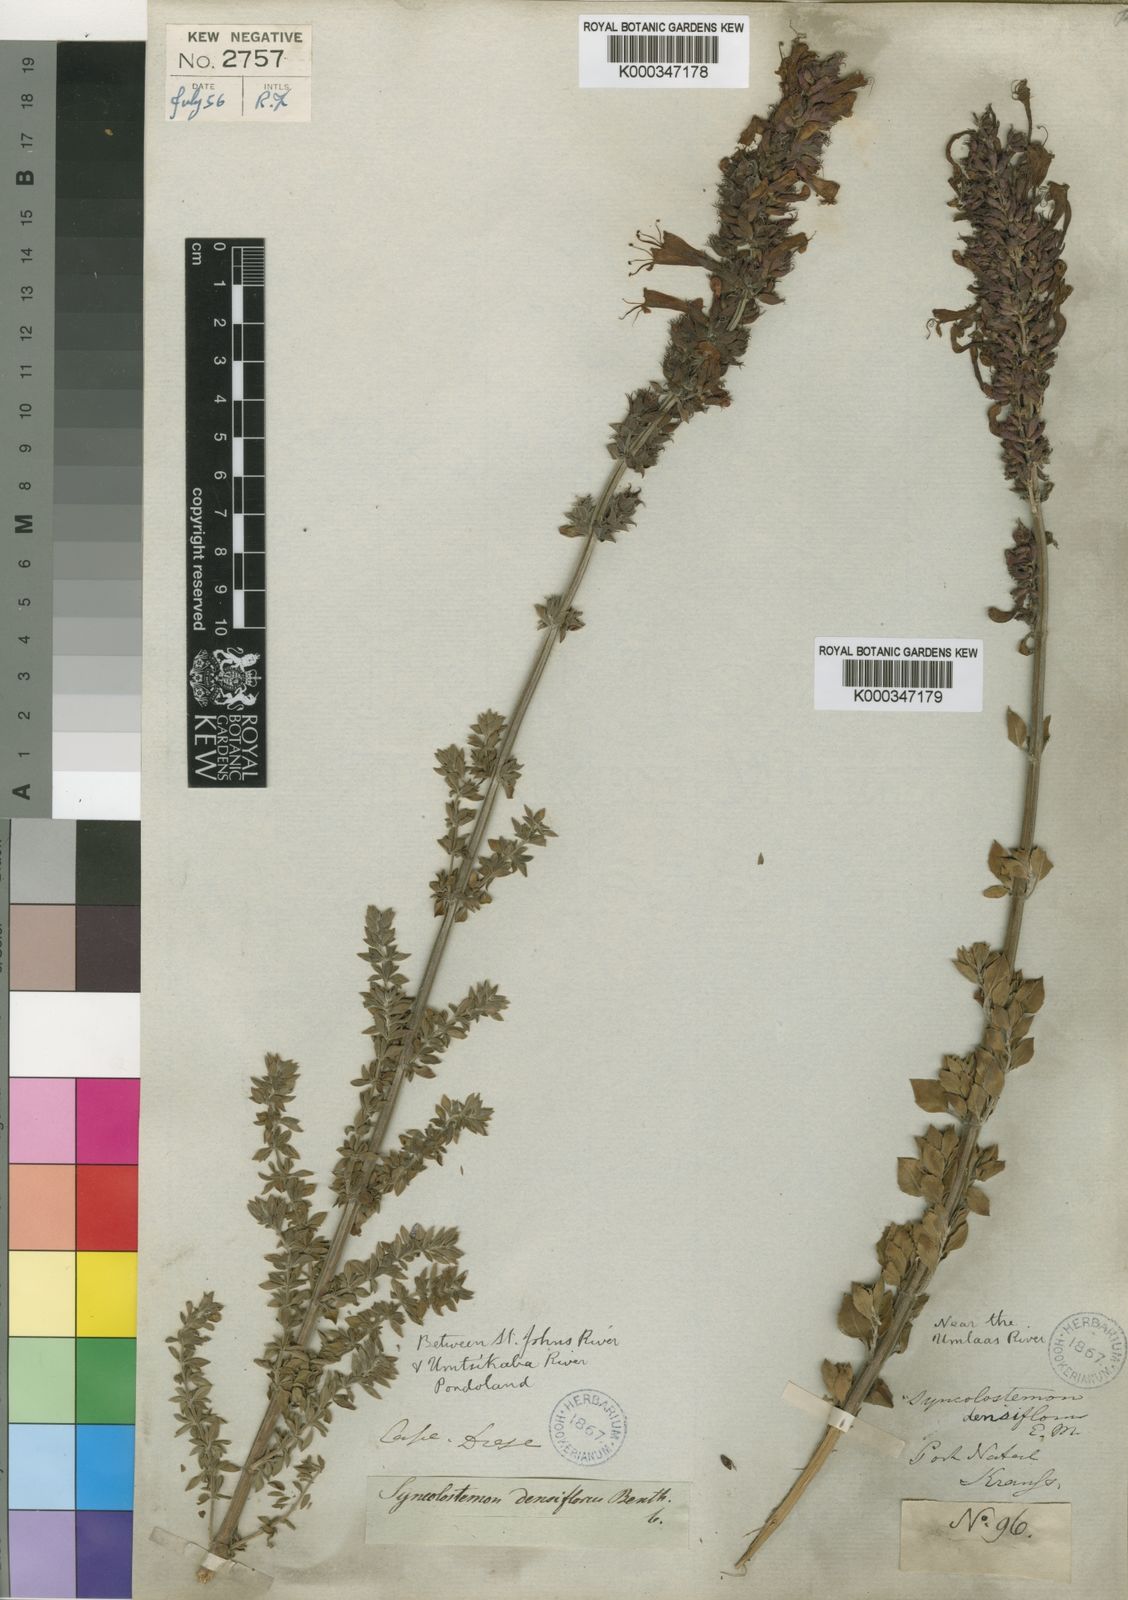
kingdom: Plantae
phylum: Tracheophyta
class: Magnoliopsida
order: Lamiales
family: Lamiaceae
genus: Syncolostemon
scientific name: Syncolostemon densiflorus
